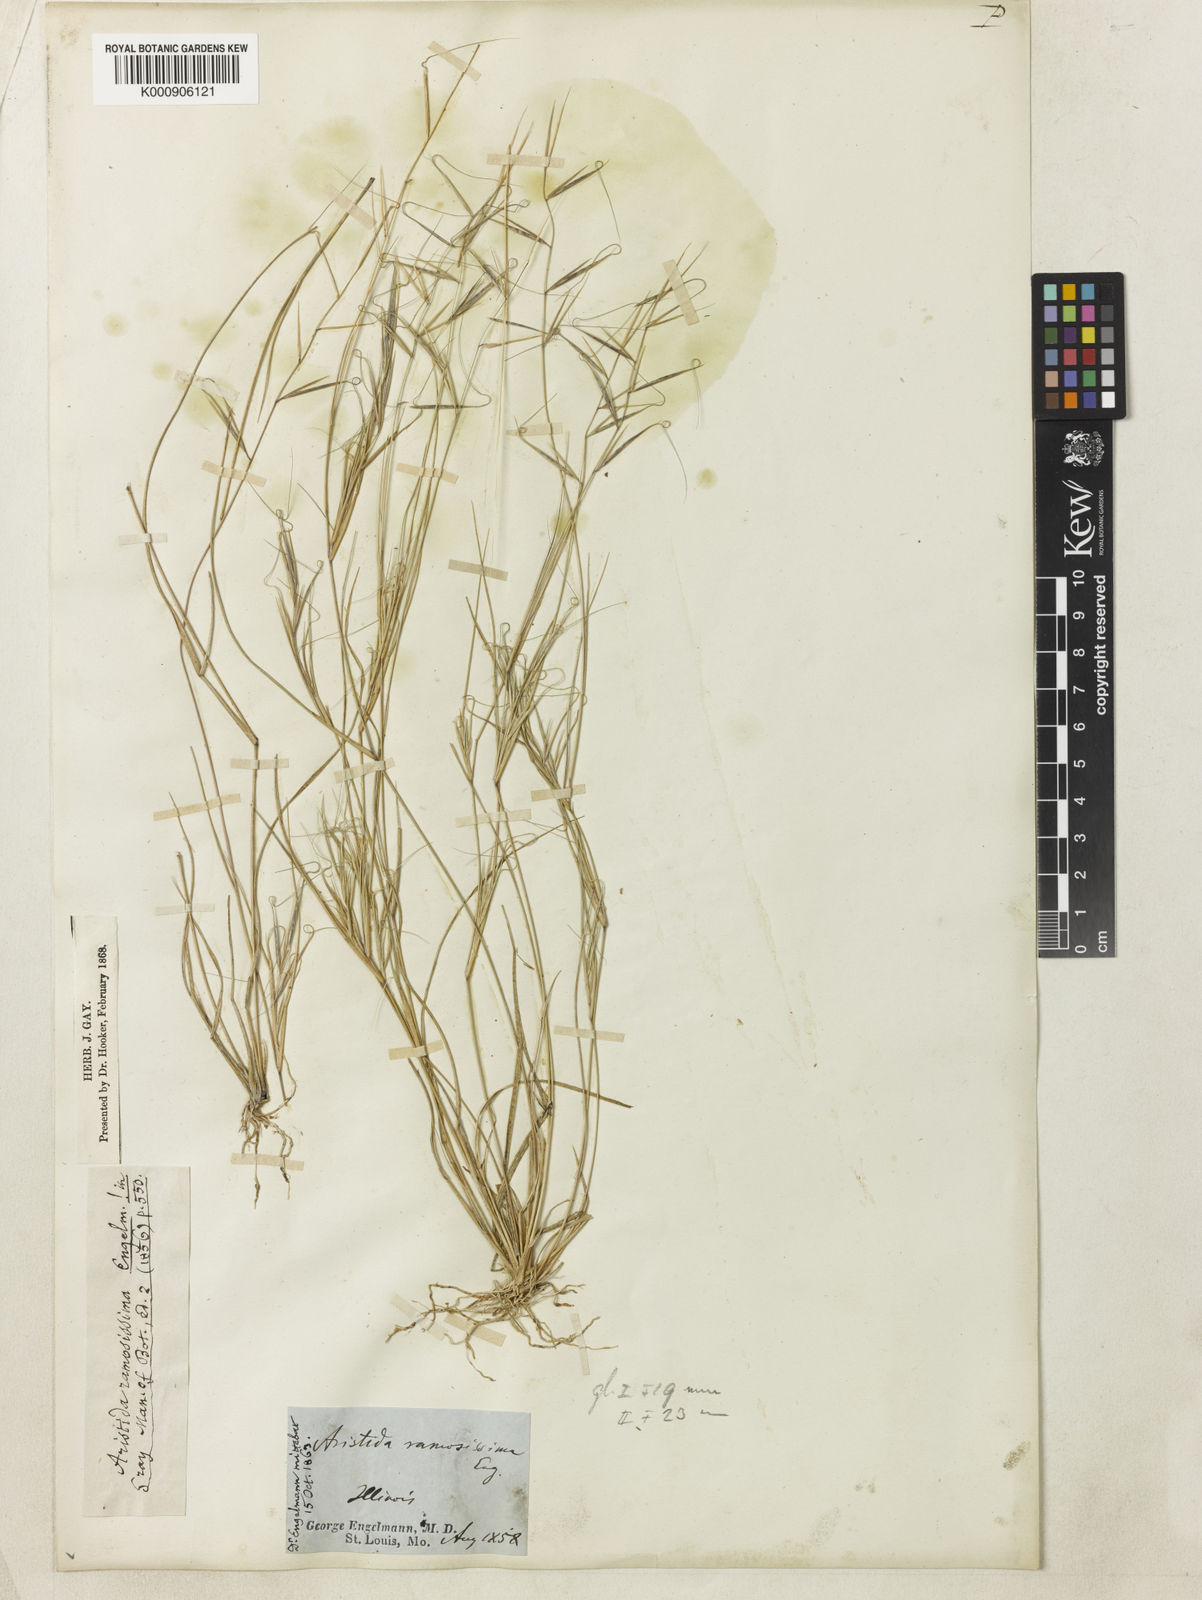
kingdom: Plantae
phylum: Tracheophyta
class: Liliopsida
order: Poales
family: Poaceae
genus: Aristida
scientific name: Aristida ramosissima
